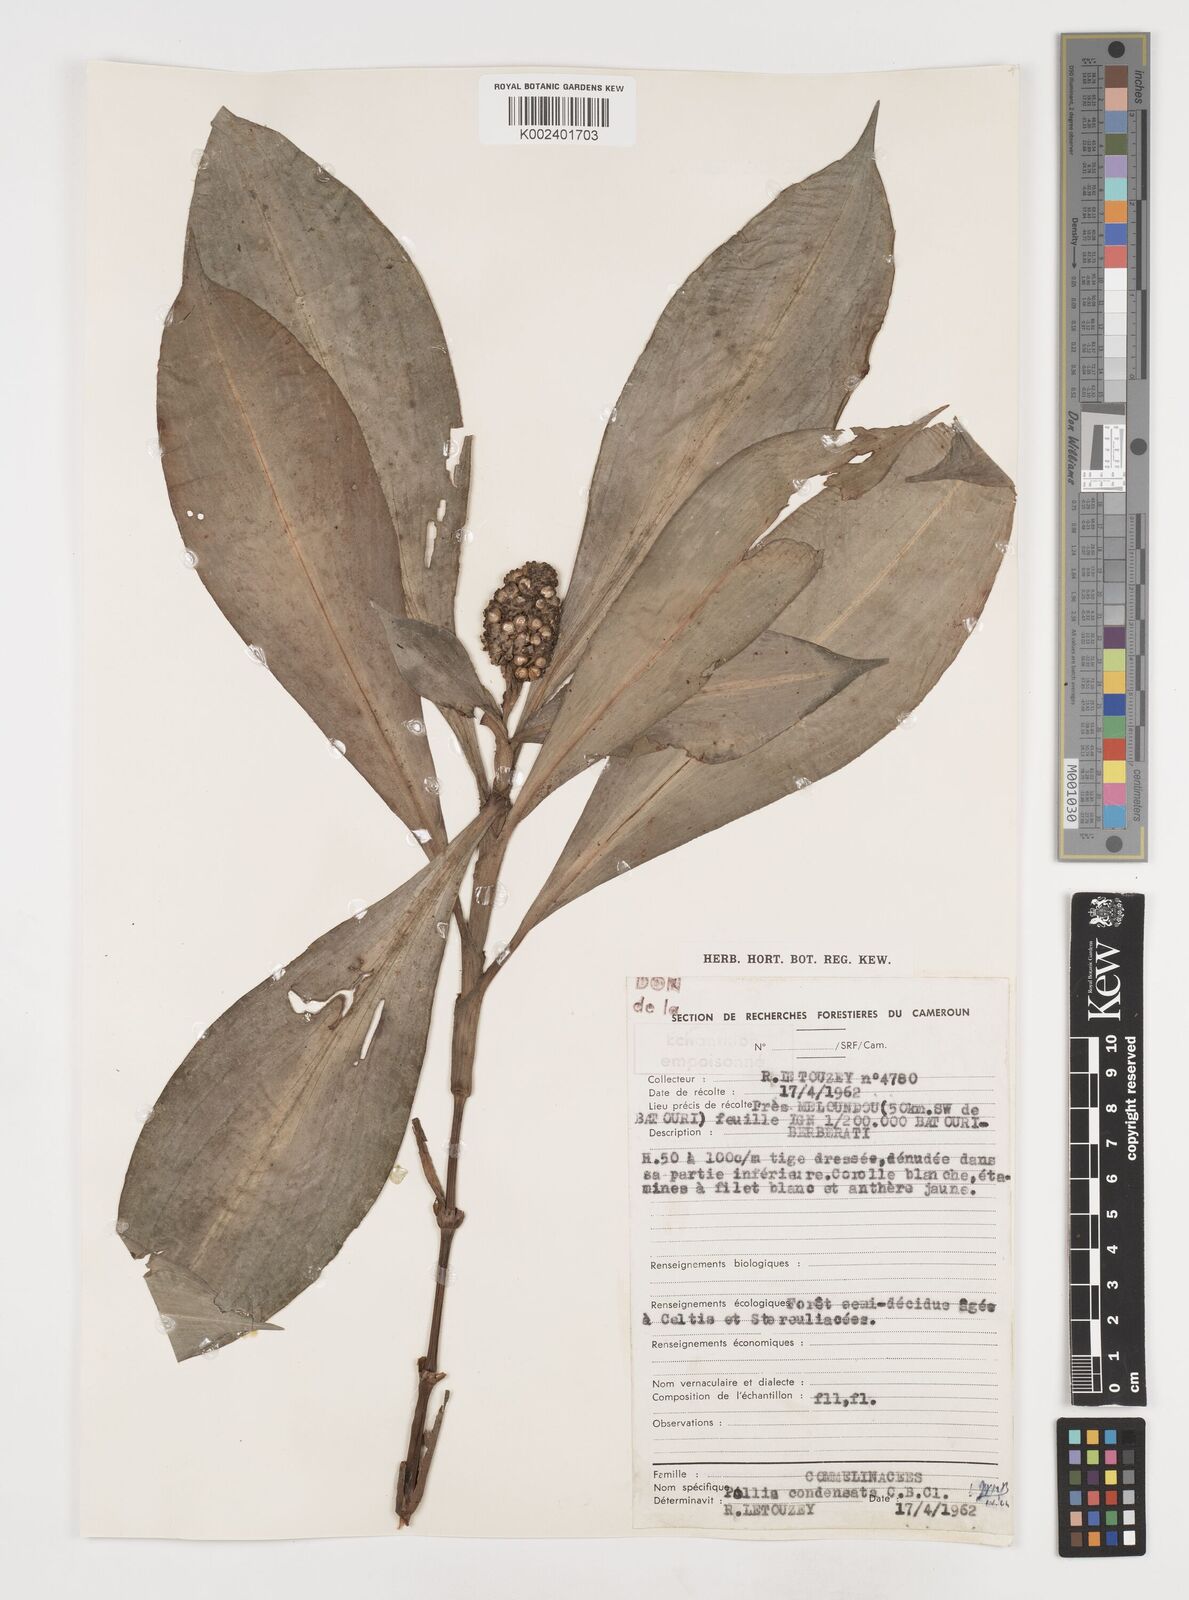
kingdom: Plantae
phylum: Tracheophyta
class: Liliopsida
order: Commelinales
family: Commelinaceae
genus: Pollia
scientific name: Pollia condensata
